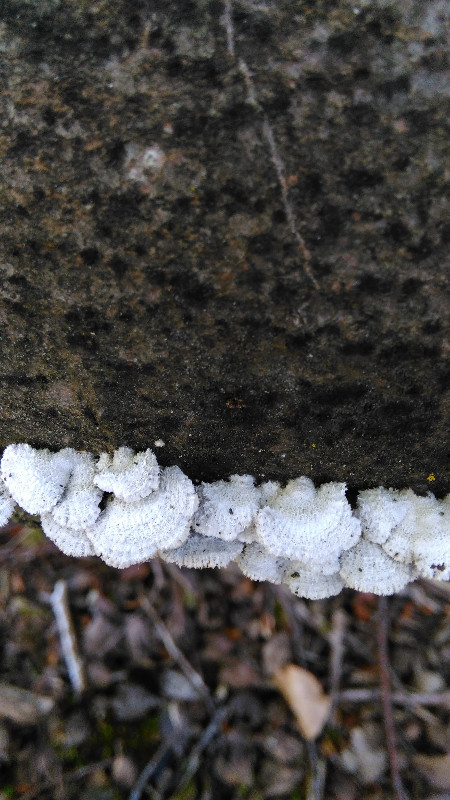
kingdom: Fungi
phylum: Basidiomycota
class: Agaricomycetes
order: Agaricales
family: Schizophyllaceae
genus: Schizophyllum
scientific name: Schizophyllum commune
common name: kløvblad
